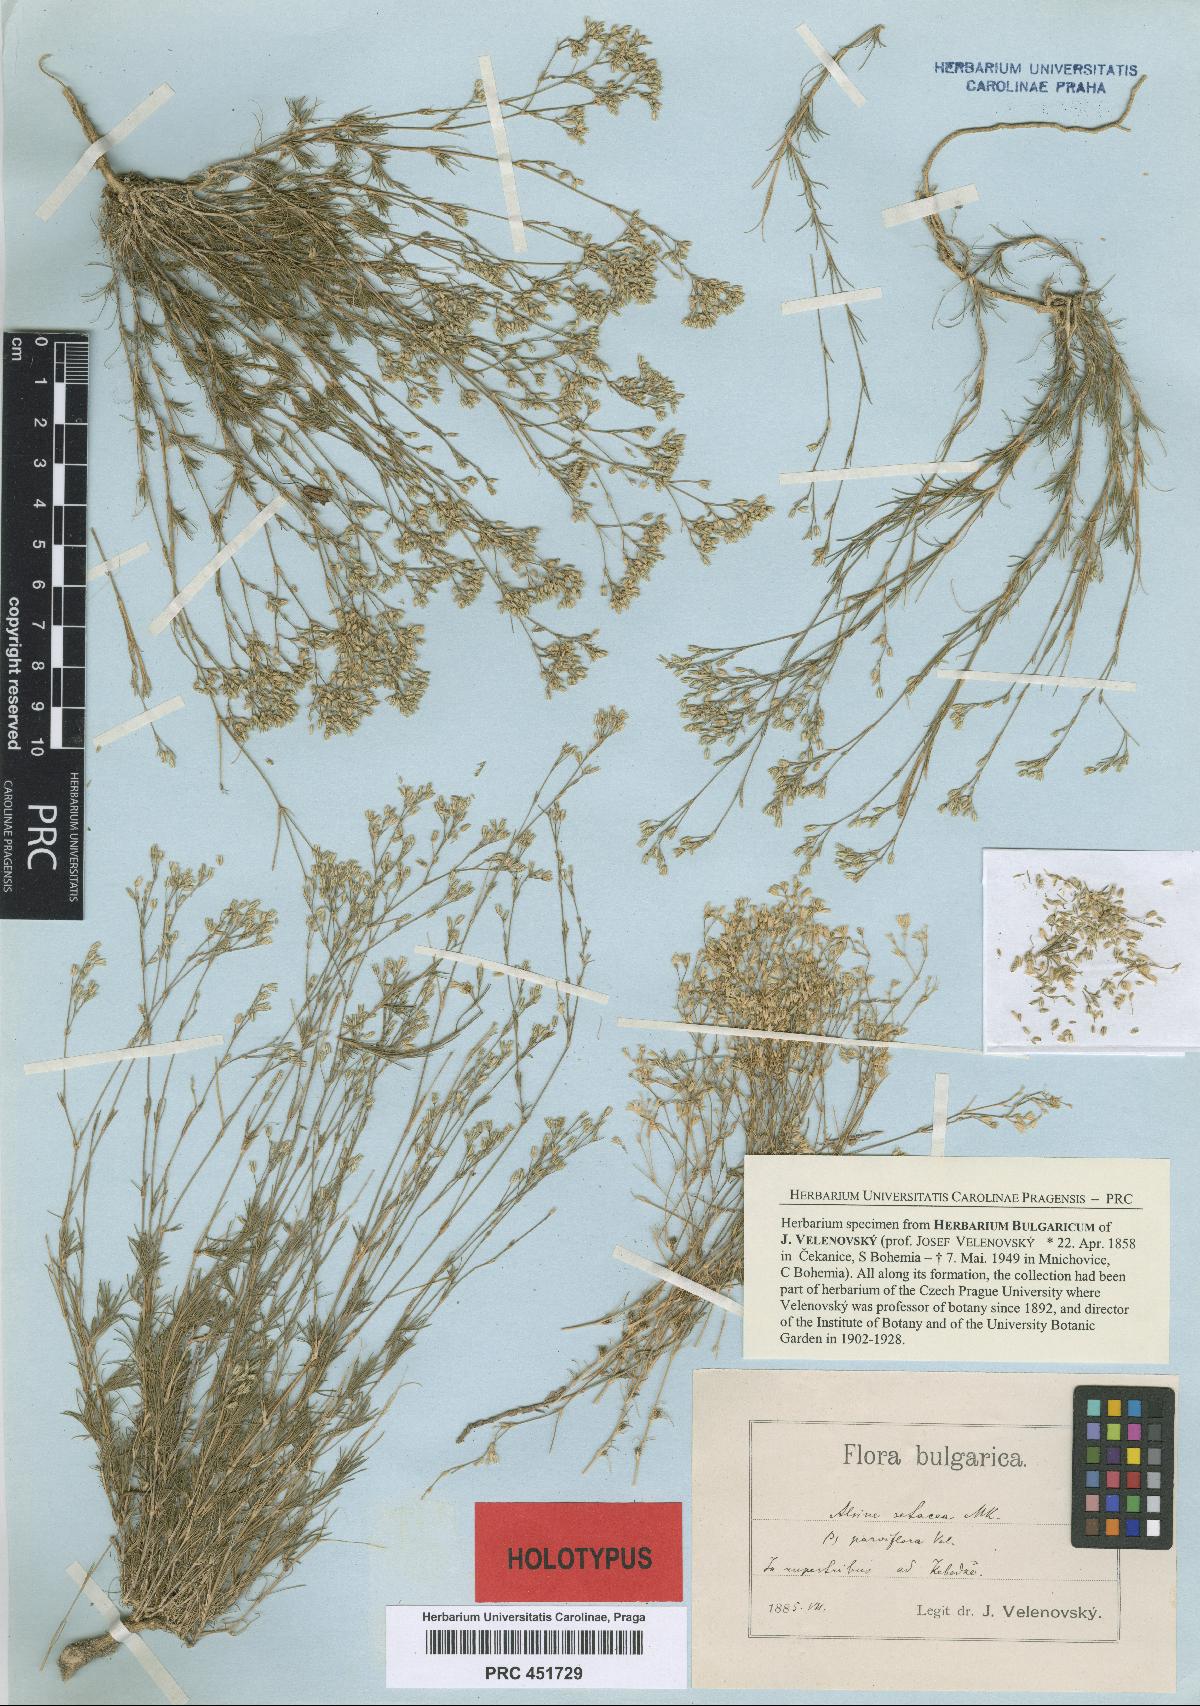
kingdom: Plantae
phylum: Tracheophyta
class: Magnoliopsida
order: Caryophyllales
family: Caryophyllaceae
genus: Minuartia
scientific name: Minuartia setacea
